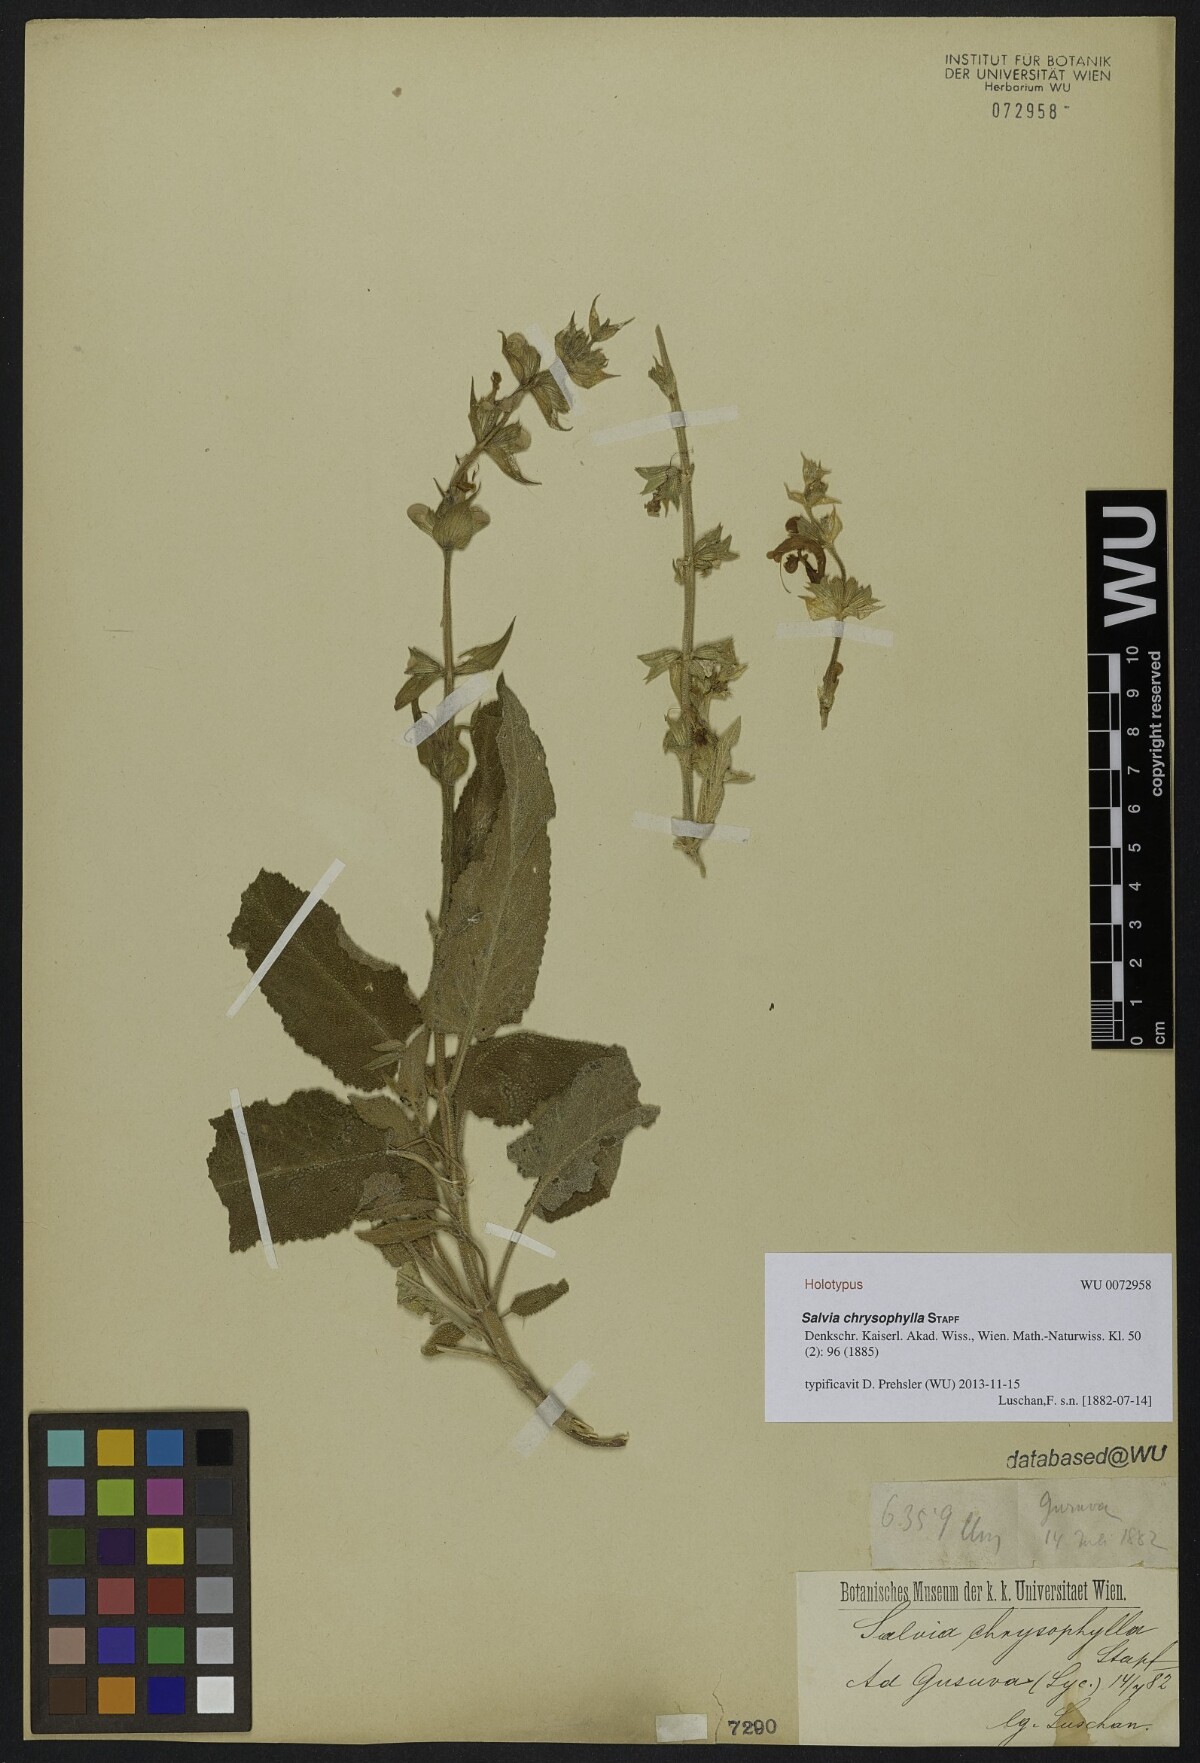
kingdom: Plantae
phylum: Tracheophyta
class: Magnoliopsida
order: Lamiales
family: Lamiaceae
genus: Salvia
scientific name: Salvia chrysophylla
